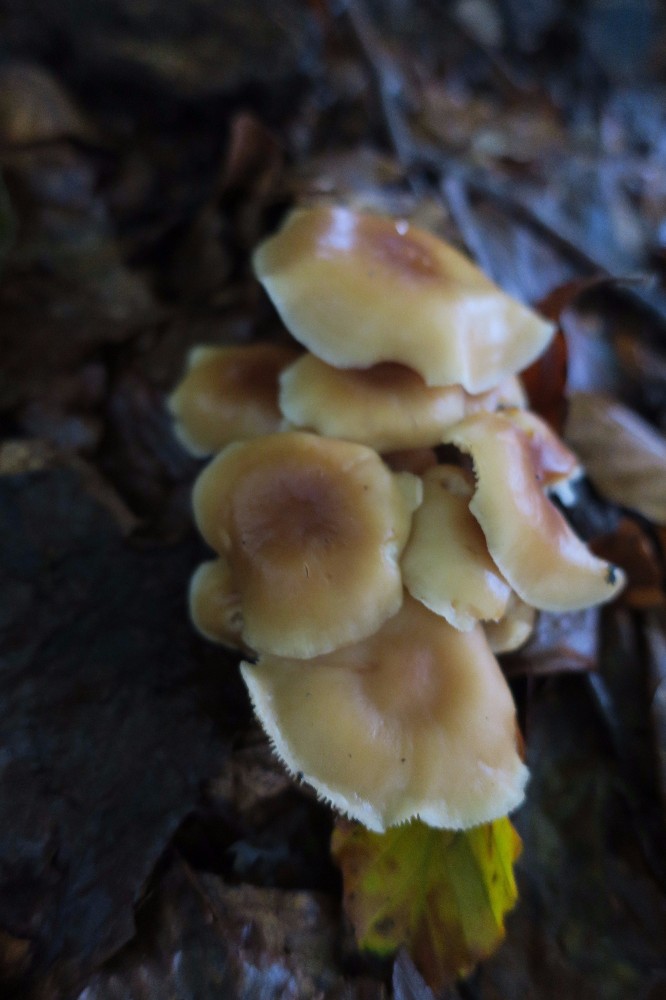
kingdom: Fungi
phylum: Basidiomycota
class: Agaricomycetes
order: Agaricales
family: Omphalotaceae
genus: Gymnopus
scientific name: Gymnopus
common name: fladhat
